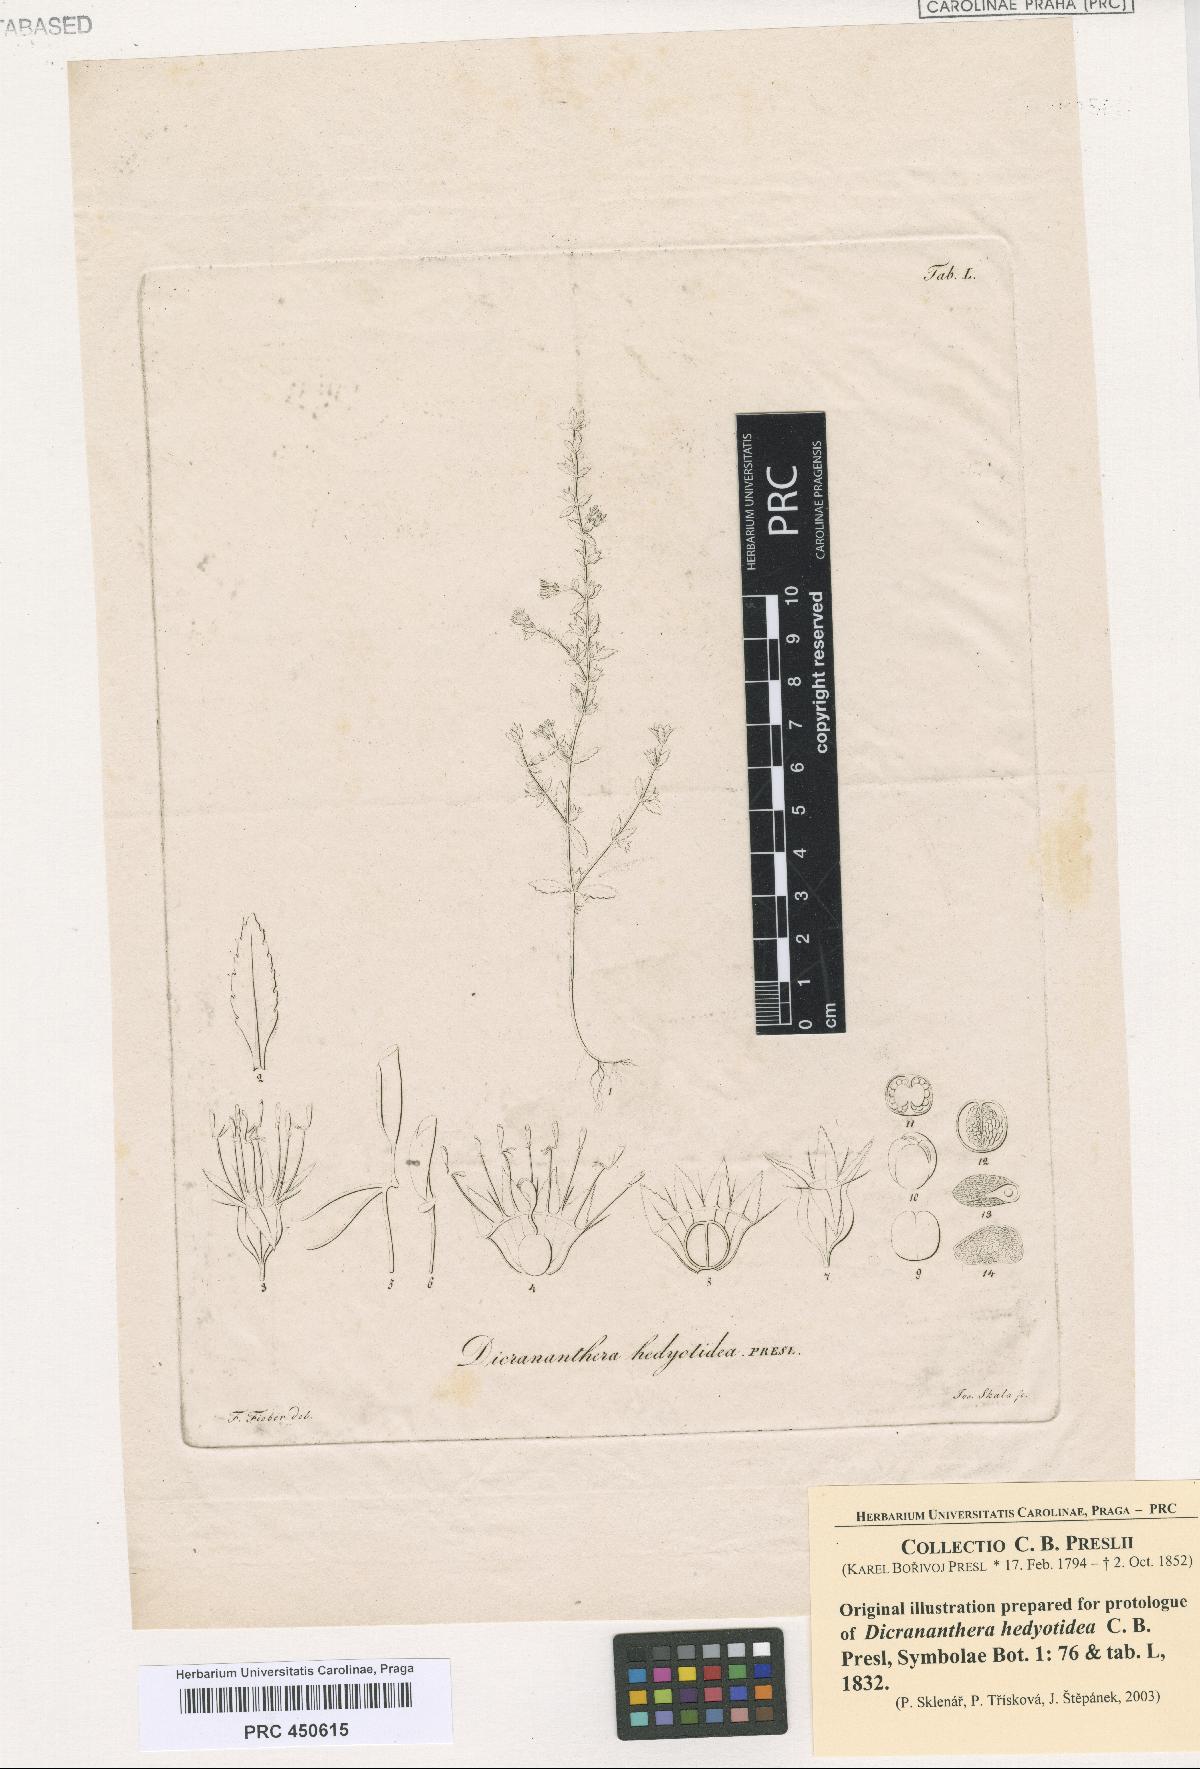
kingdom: Plantae
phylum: Tracheophyta
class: Magnoliopsida
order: Myrtales
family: Melastomataceae
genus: Dicrananthera
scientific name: Dicrananthera hedyotidea
